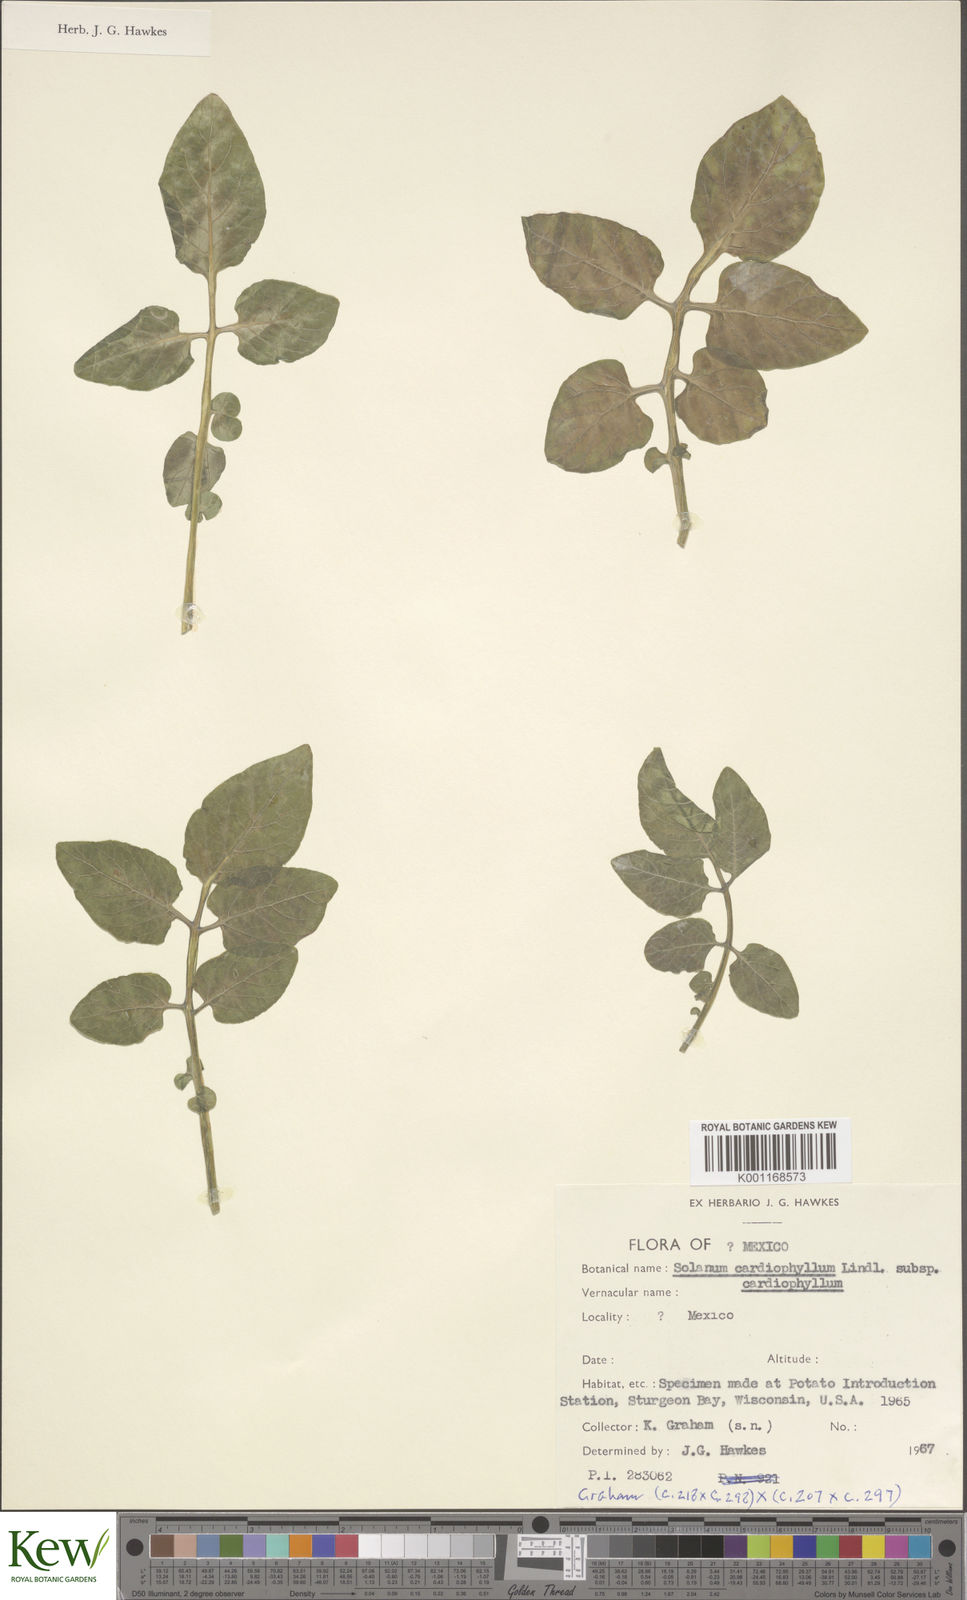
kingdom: Plantae
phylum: Tracheophyta
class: Magnoliopsida
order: Solanales
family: Solanaceae
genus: Solanum
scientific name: Solanum cardiophyllum
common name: Heartleaf horsenettle
